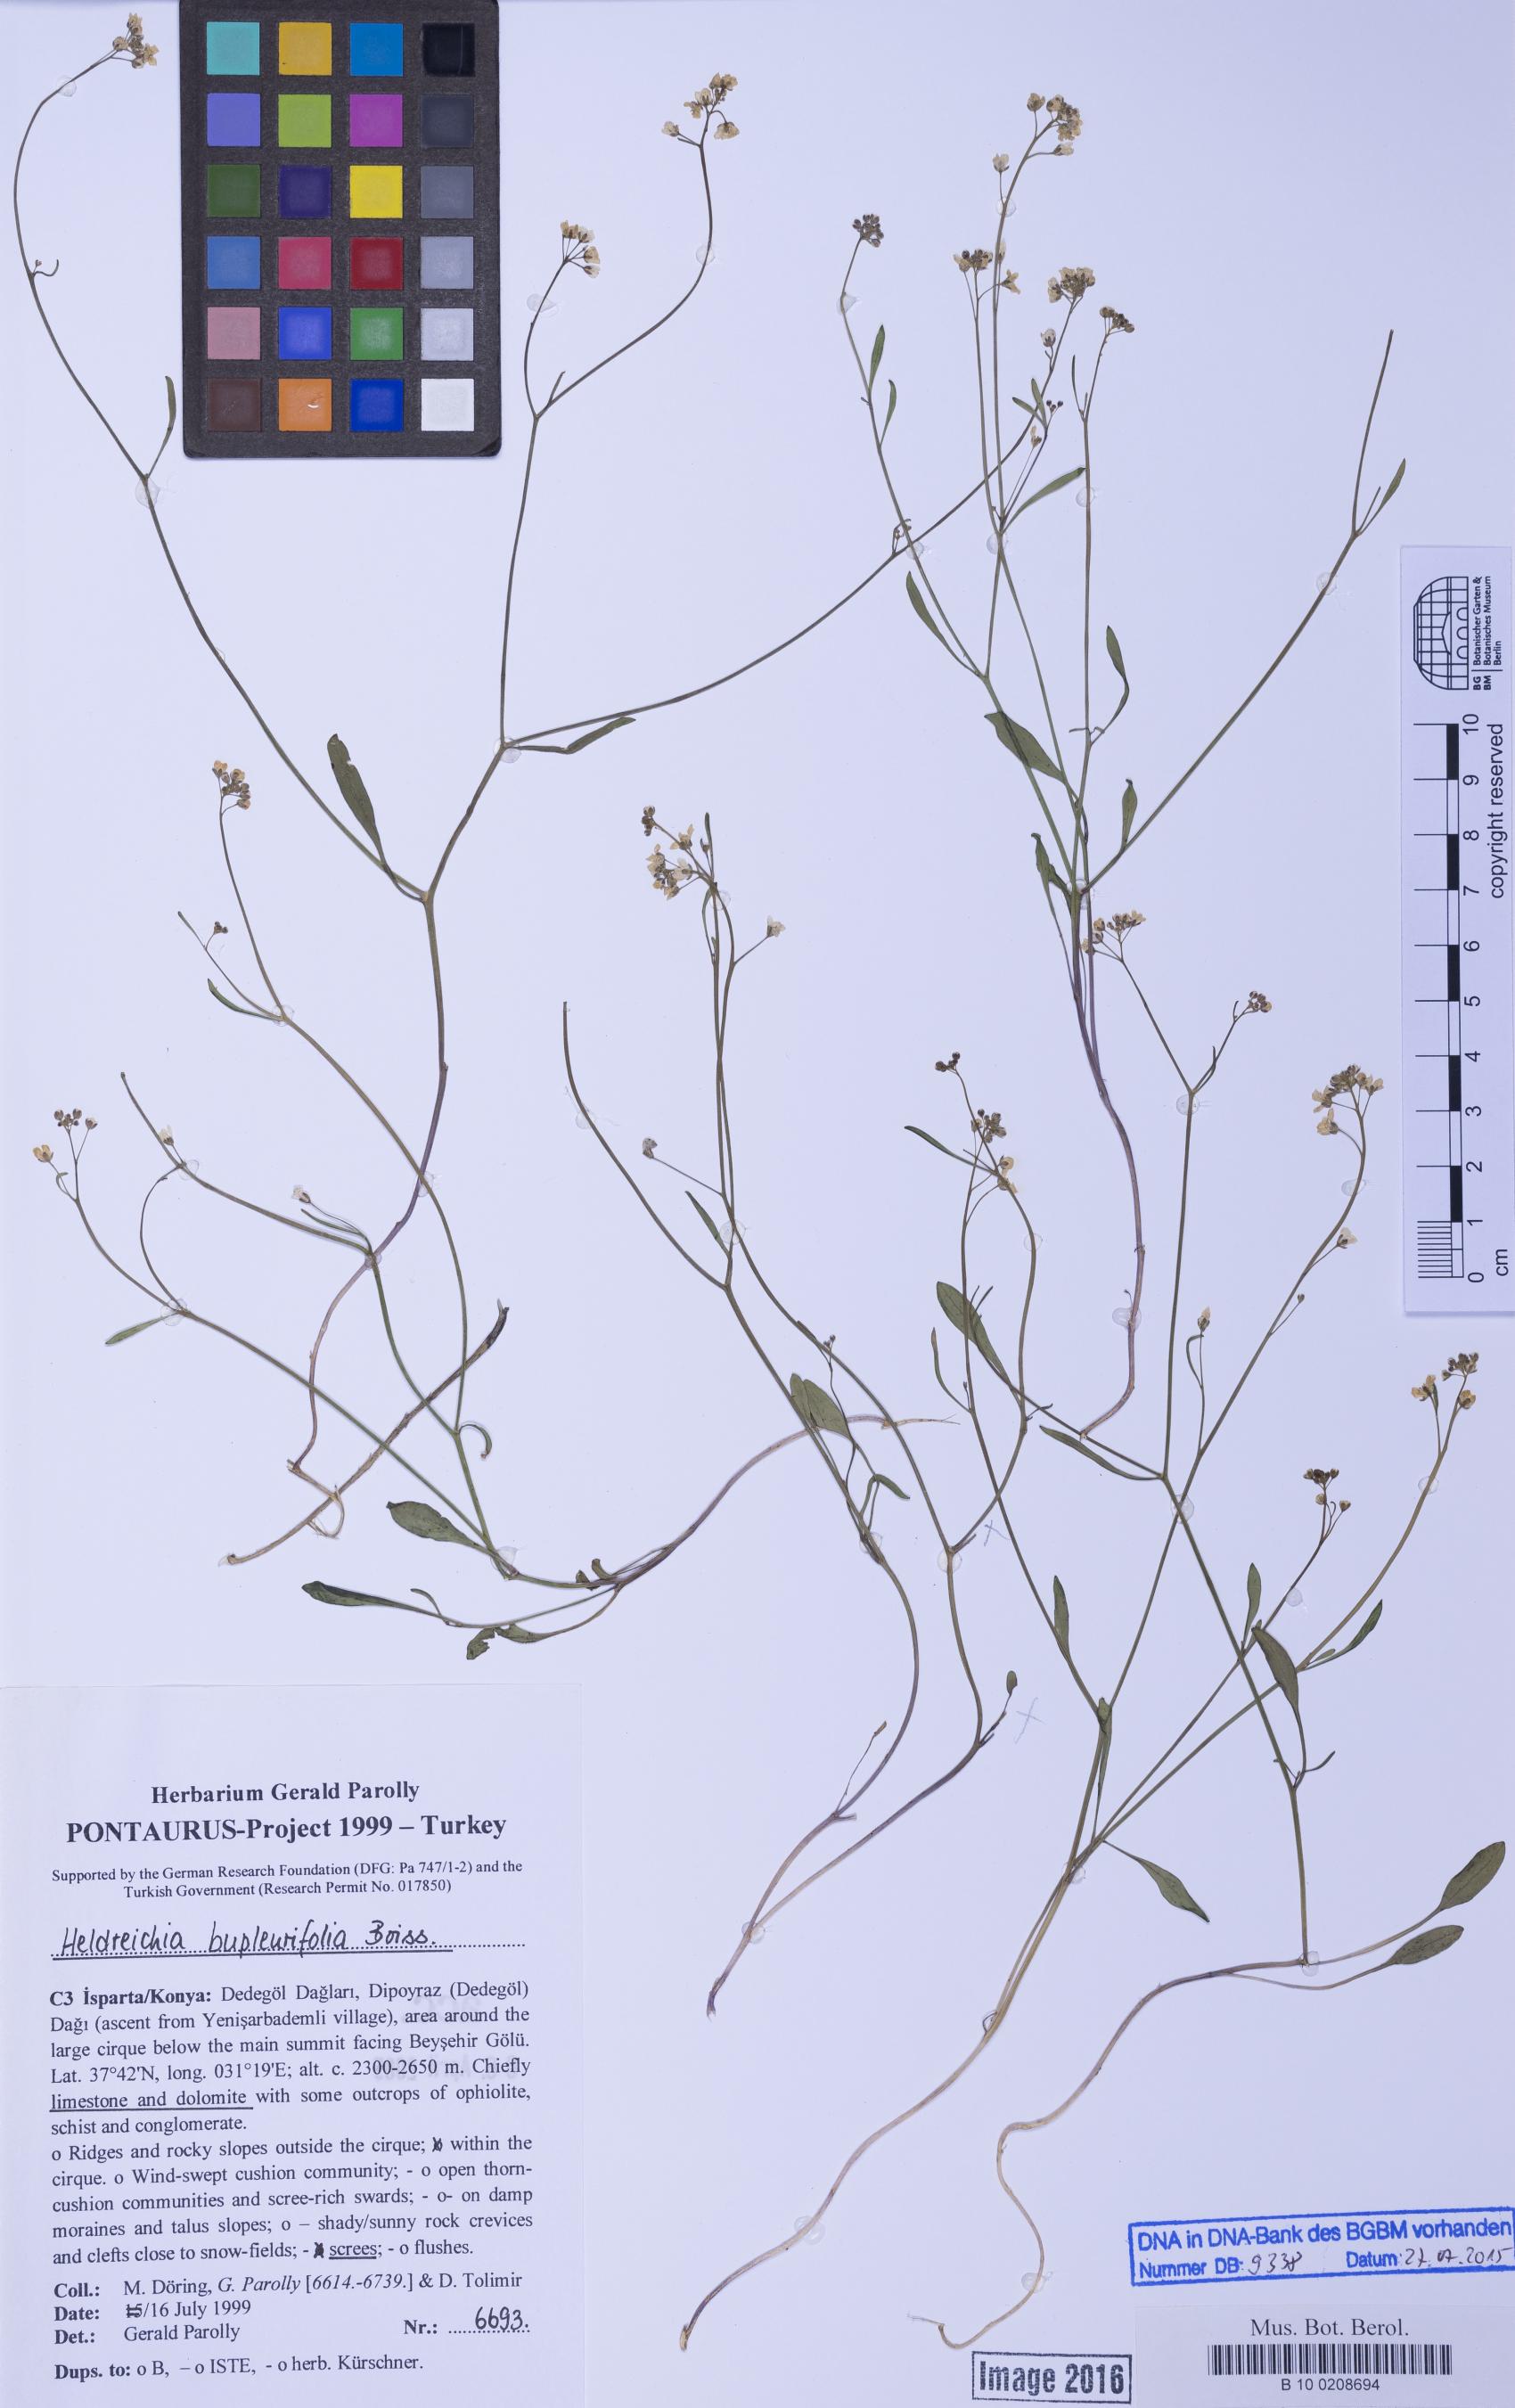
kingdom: Plantae
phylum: Tracheophyta
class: Magnoliopsida
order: Brassicales
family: Brassicaceae
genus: Heldreichia
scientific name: Heldreichia bupleurifolia
